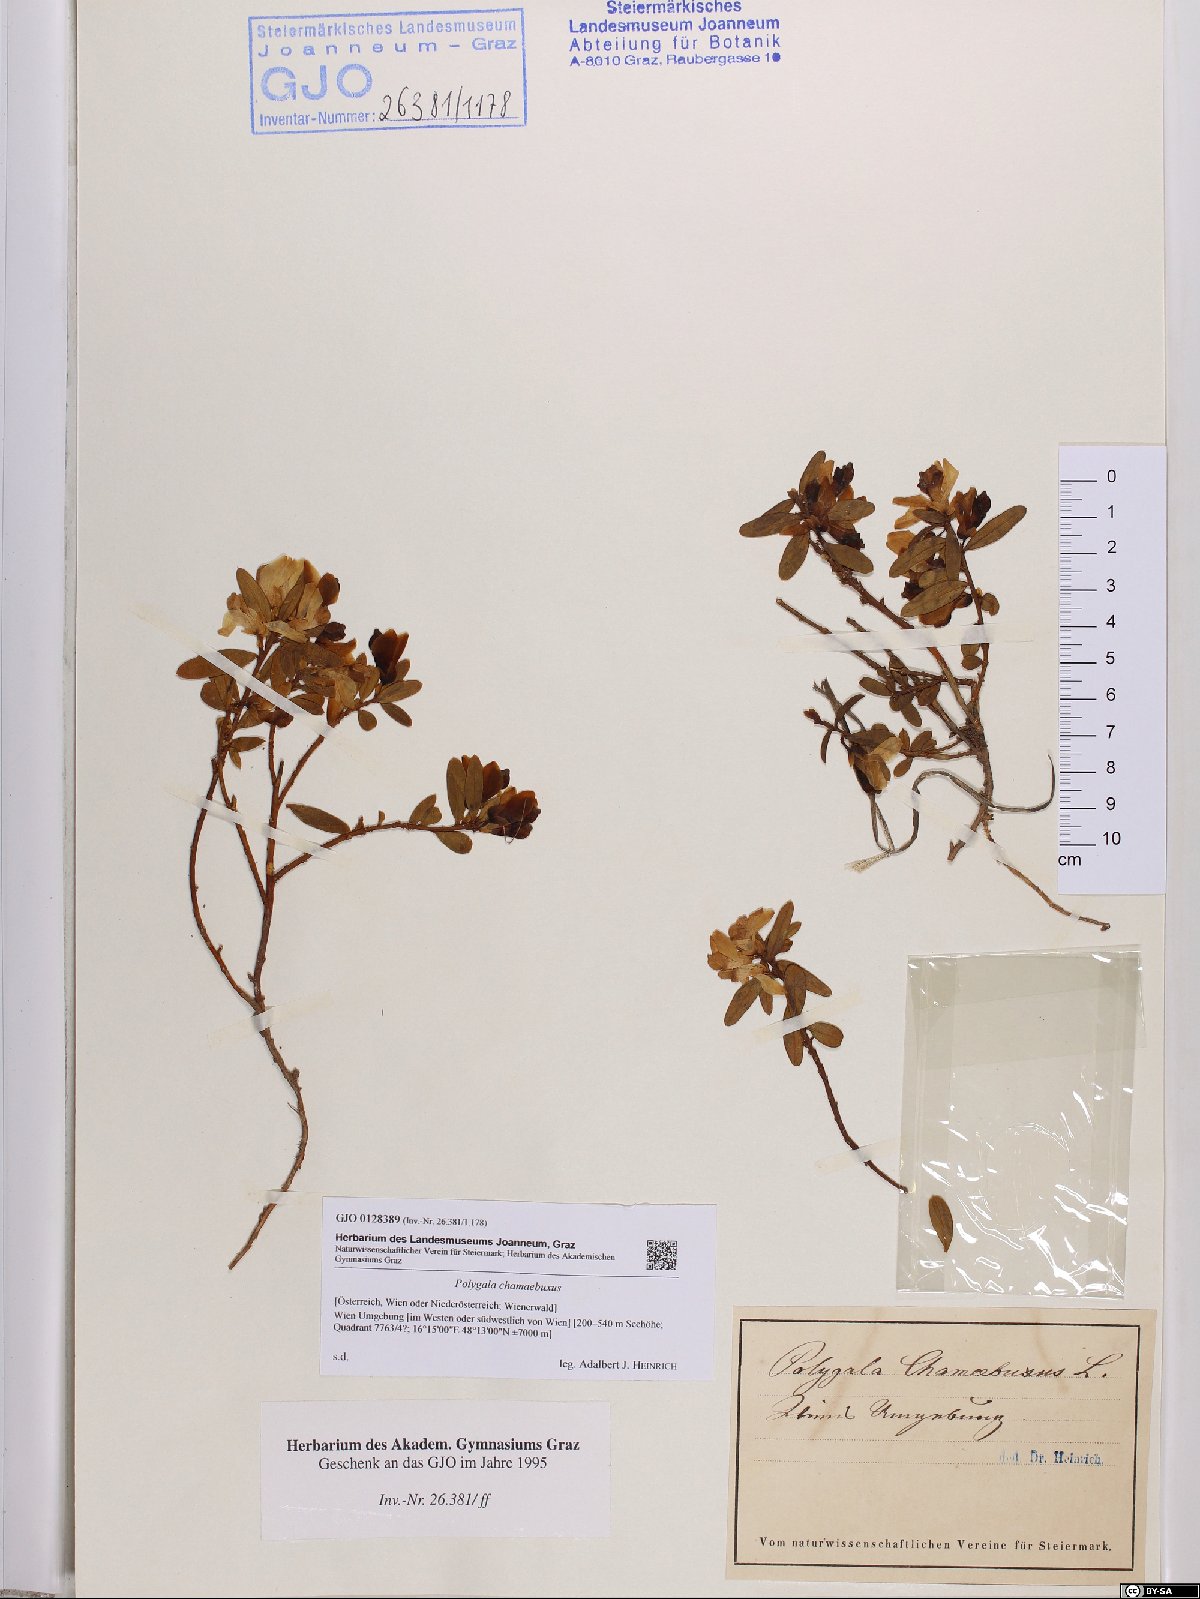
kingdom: Plantae
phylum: Tracheophyta
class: Magnoliopsida
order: Fabales
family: Polygalaceae
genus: Polygaloides
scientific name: Polygaloides chamaebuxus
